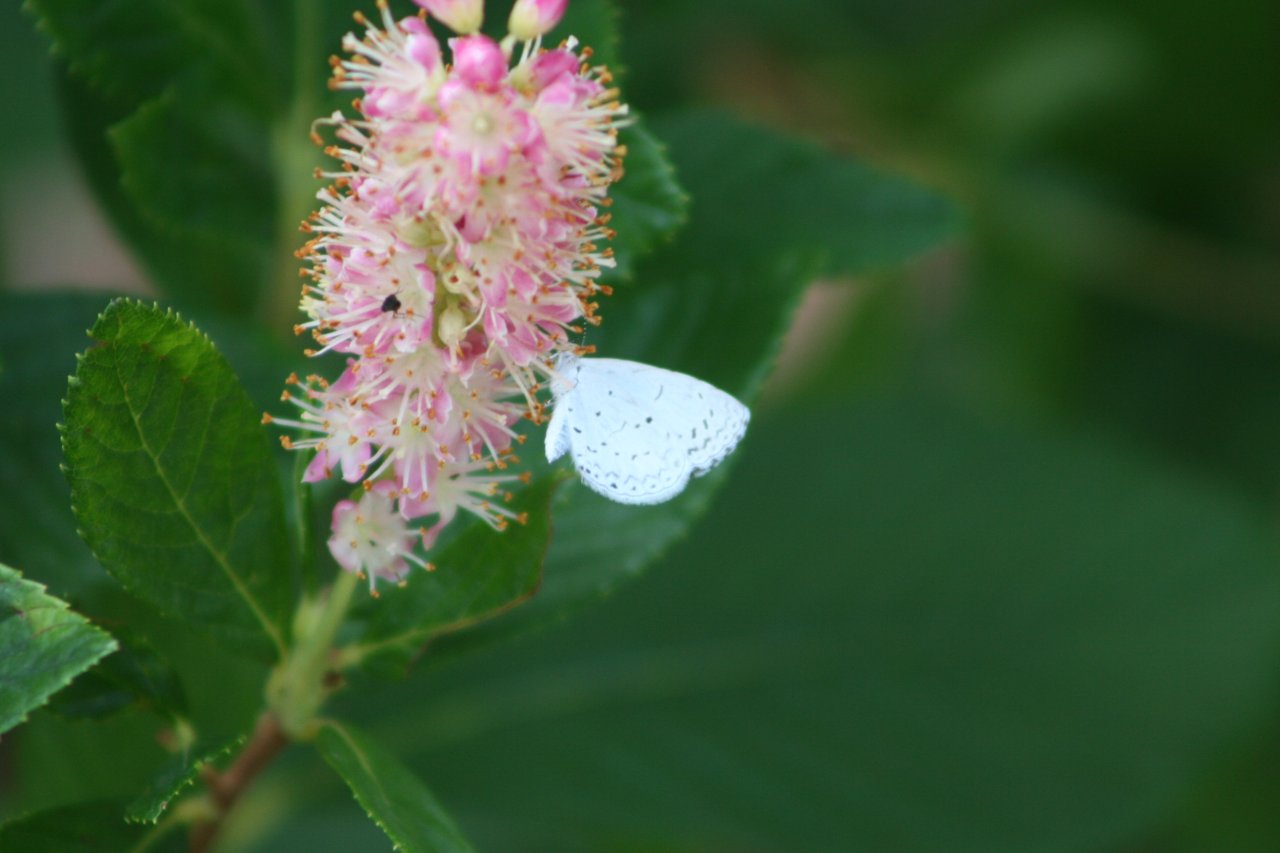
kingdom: Animalia
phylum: Arthropoda
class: Insecta
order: Lepidoptera
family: Lycaenidae
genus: Cyaniris
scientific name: Cyaniris neglecta
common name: Summer Azure
